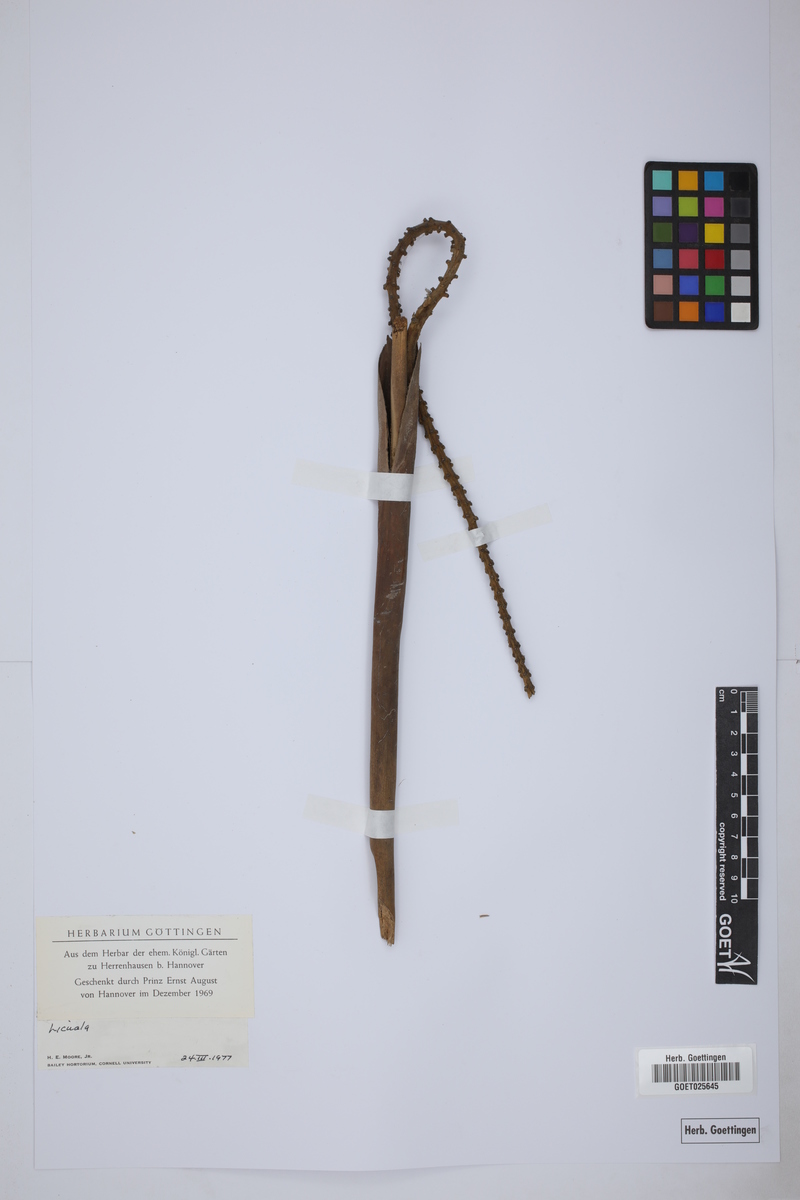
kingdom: Plantae
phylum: Tracheophyta
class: Liliopsida
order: Arecales
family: Arecaceae
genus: Licuala
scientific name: Licuala
